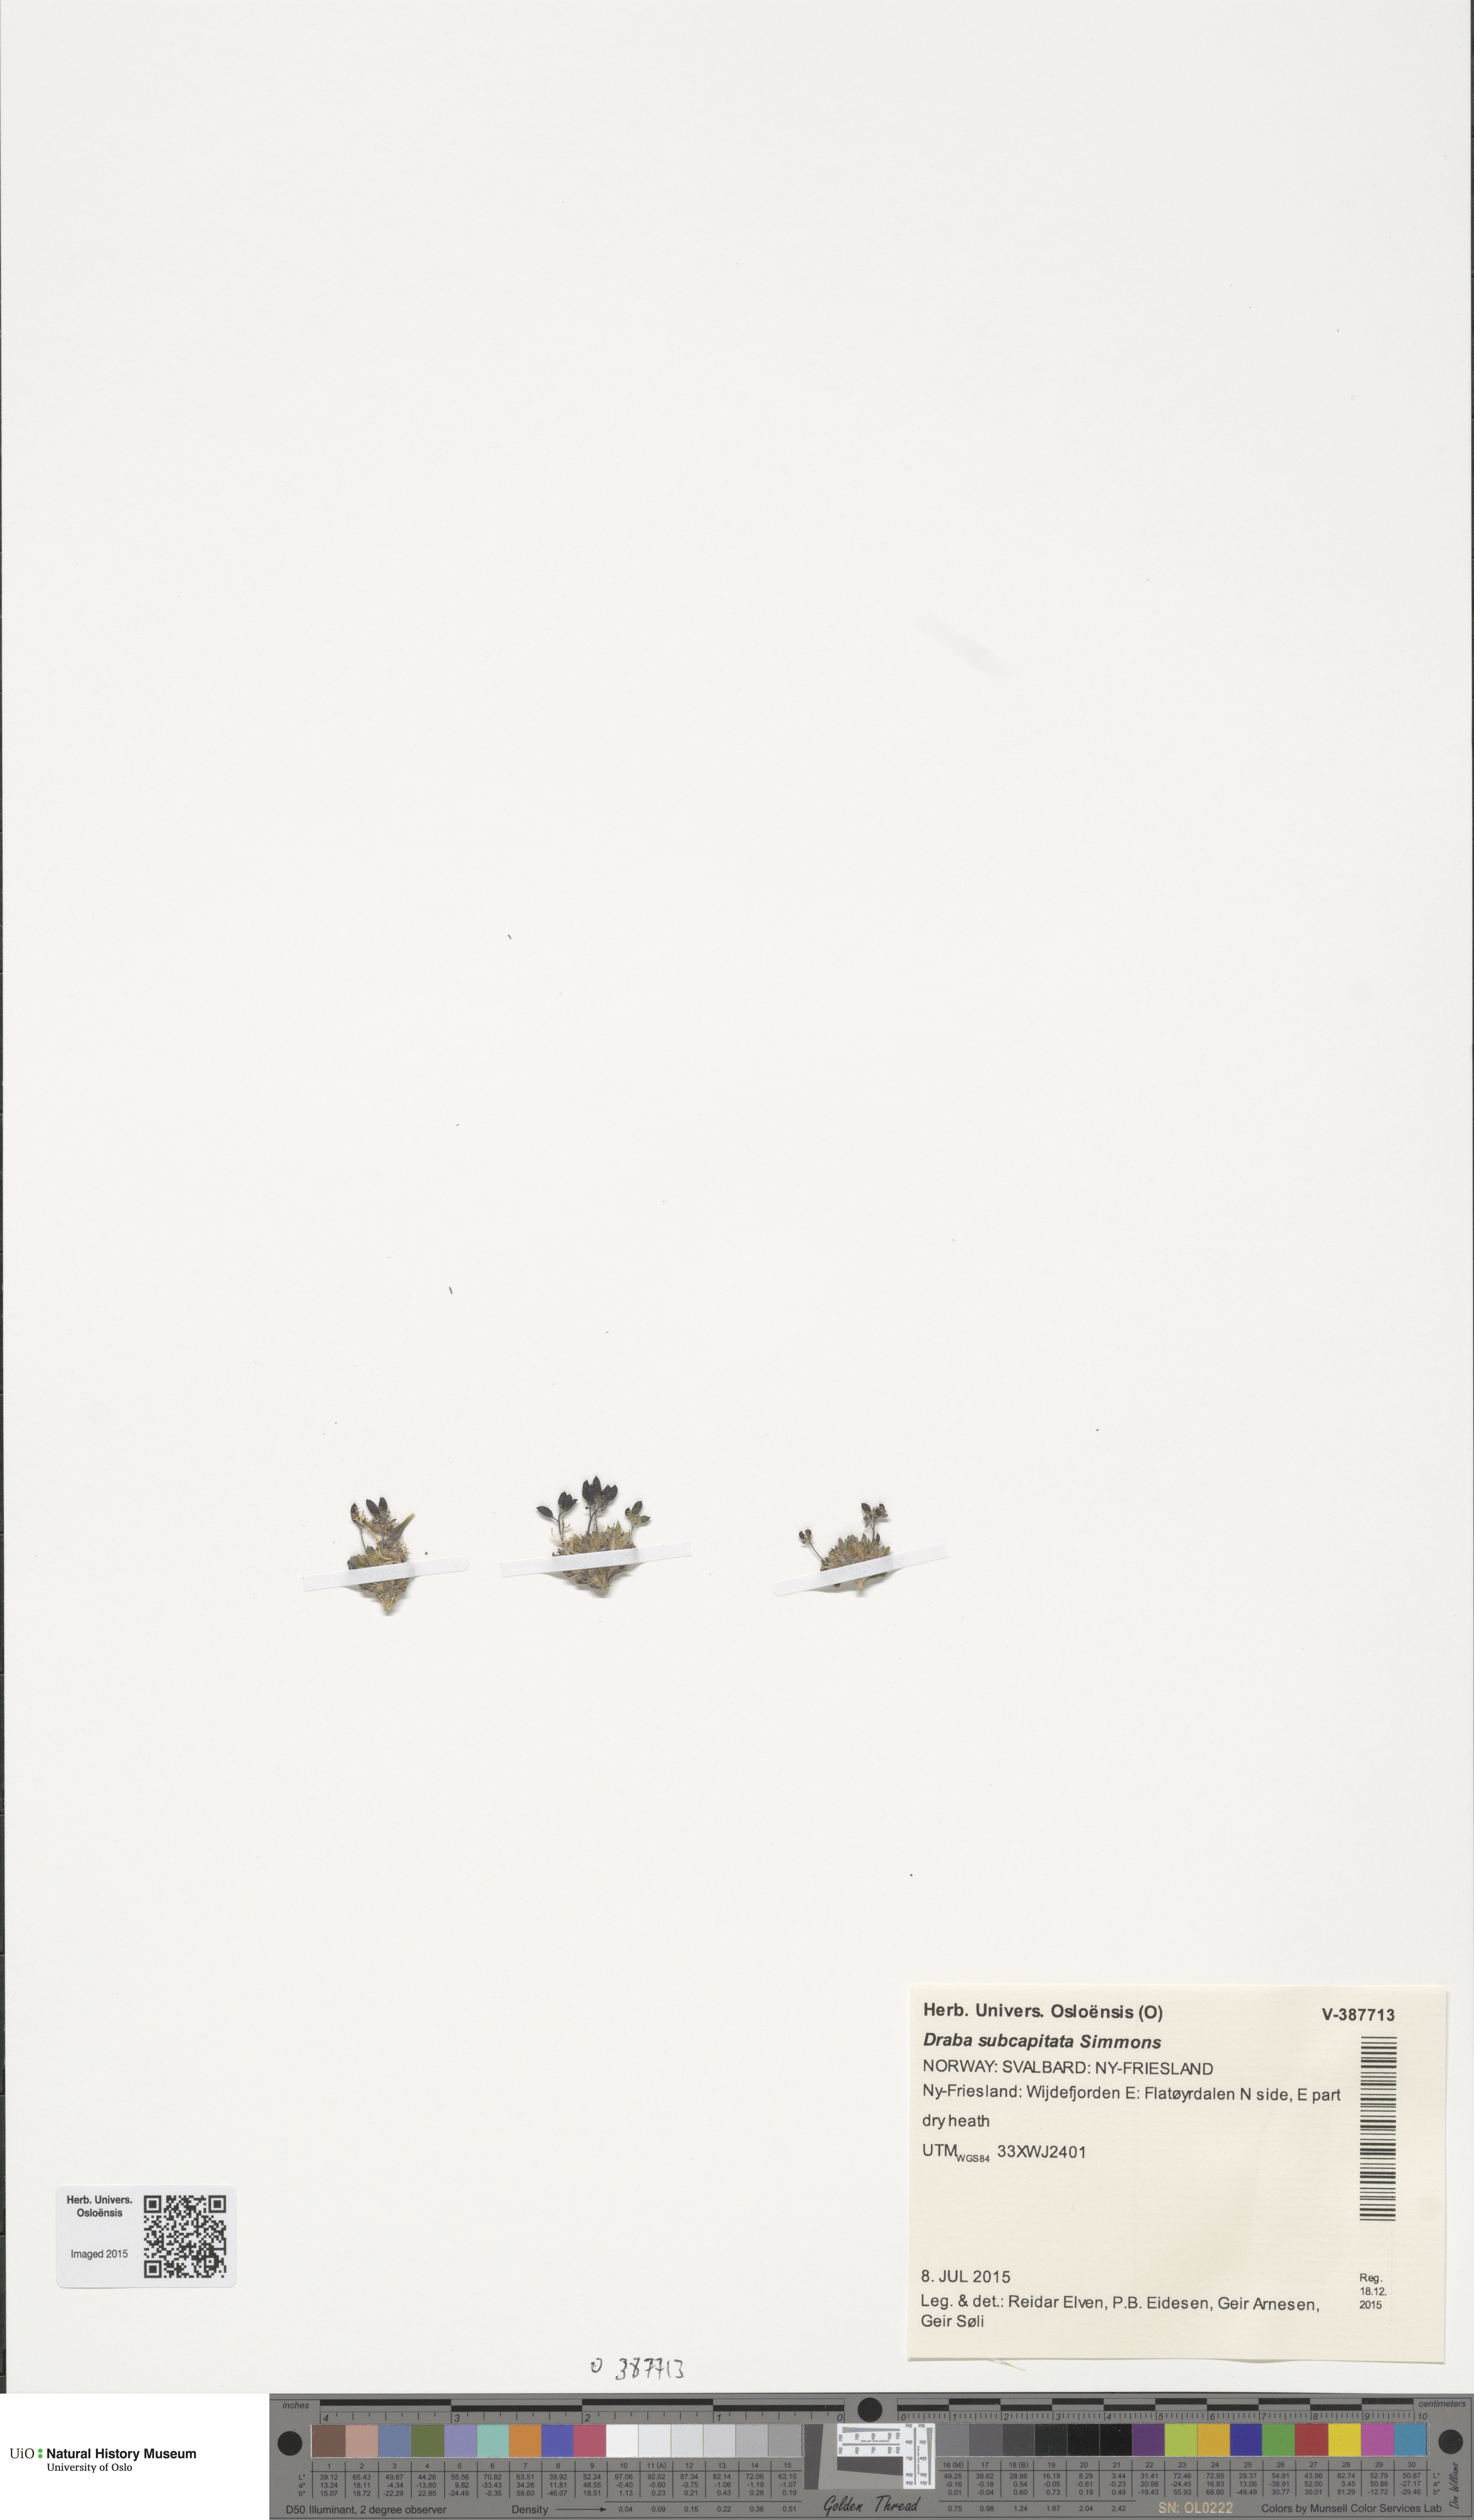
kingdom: Plantae
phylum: Tracheophyta
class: Magnoliopsida
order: Brassicales
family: Brassicaceae
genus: Draba
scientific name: Draba subcapitata
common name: Ellesmere island draba
